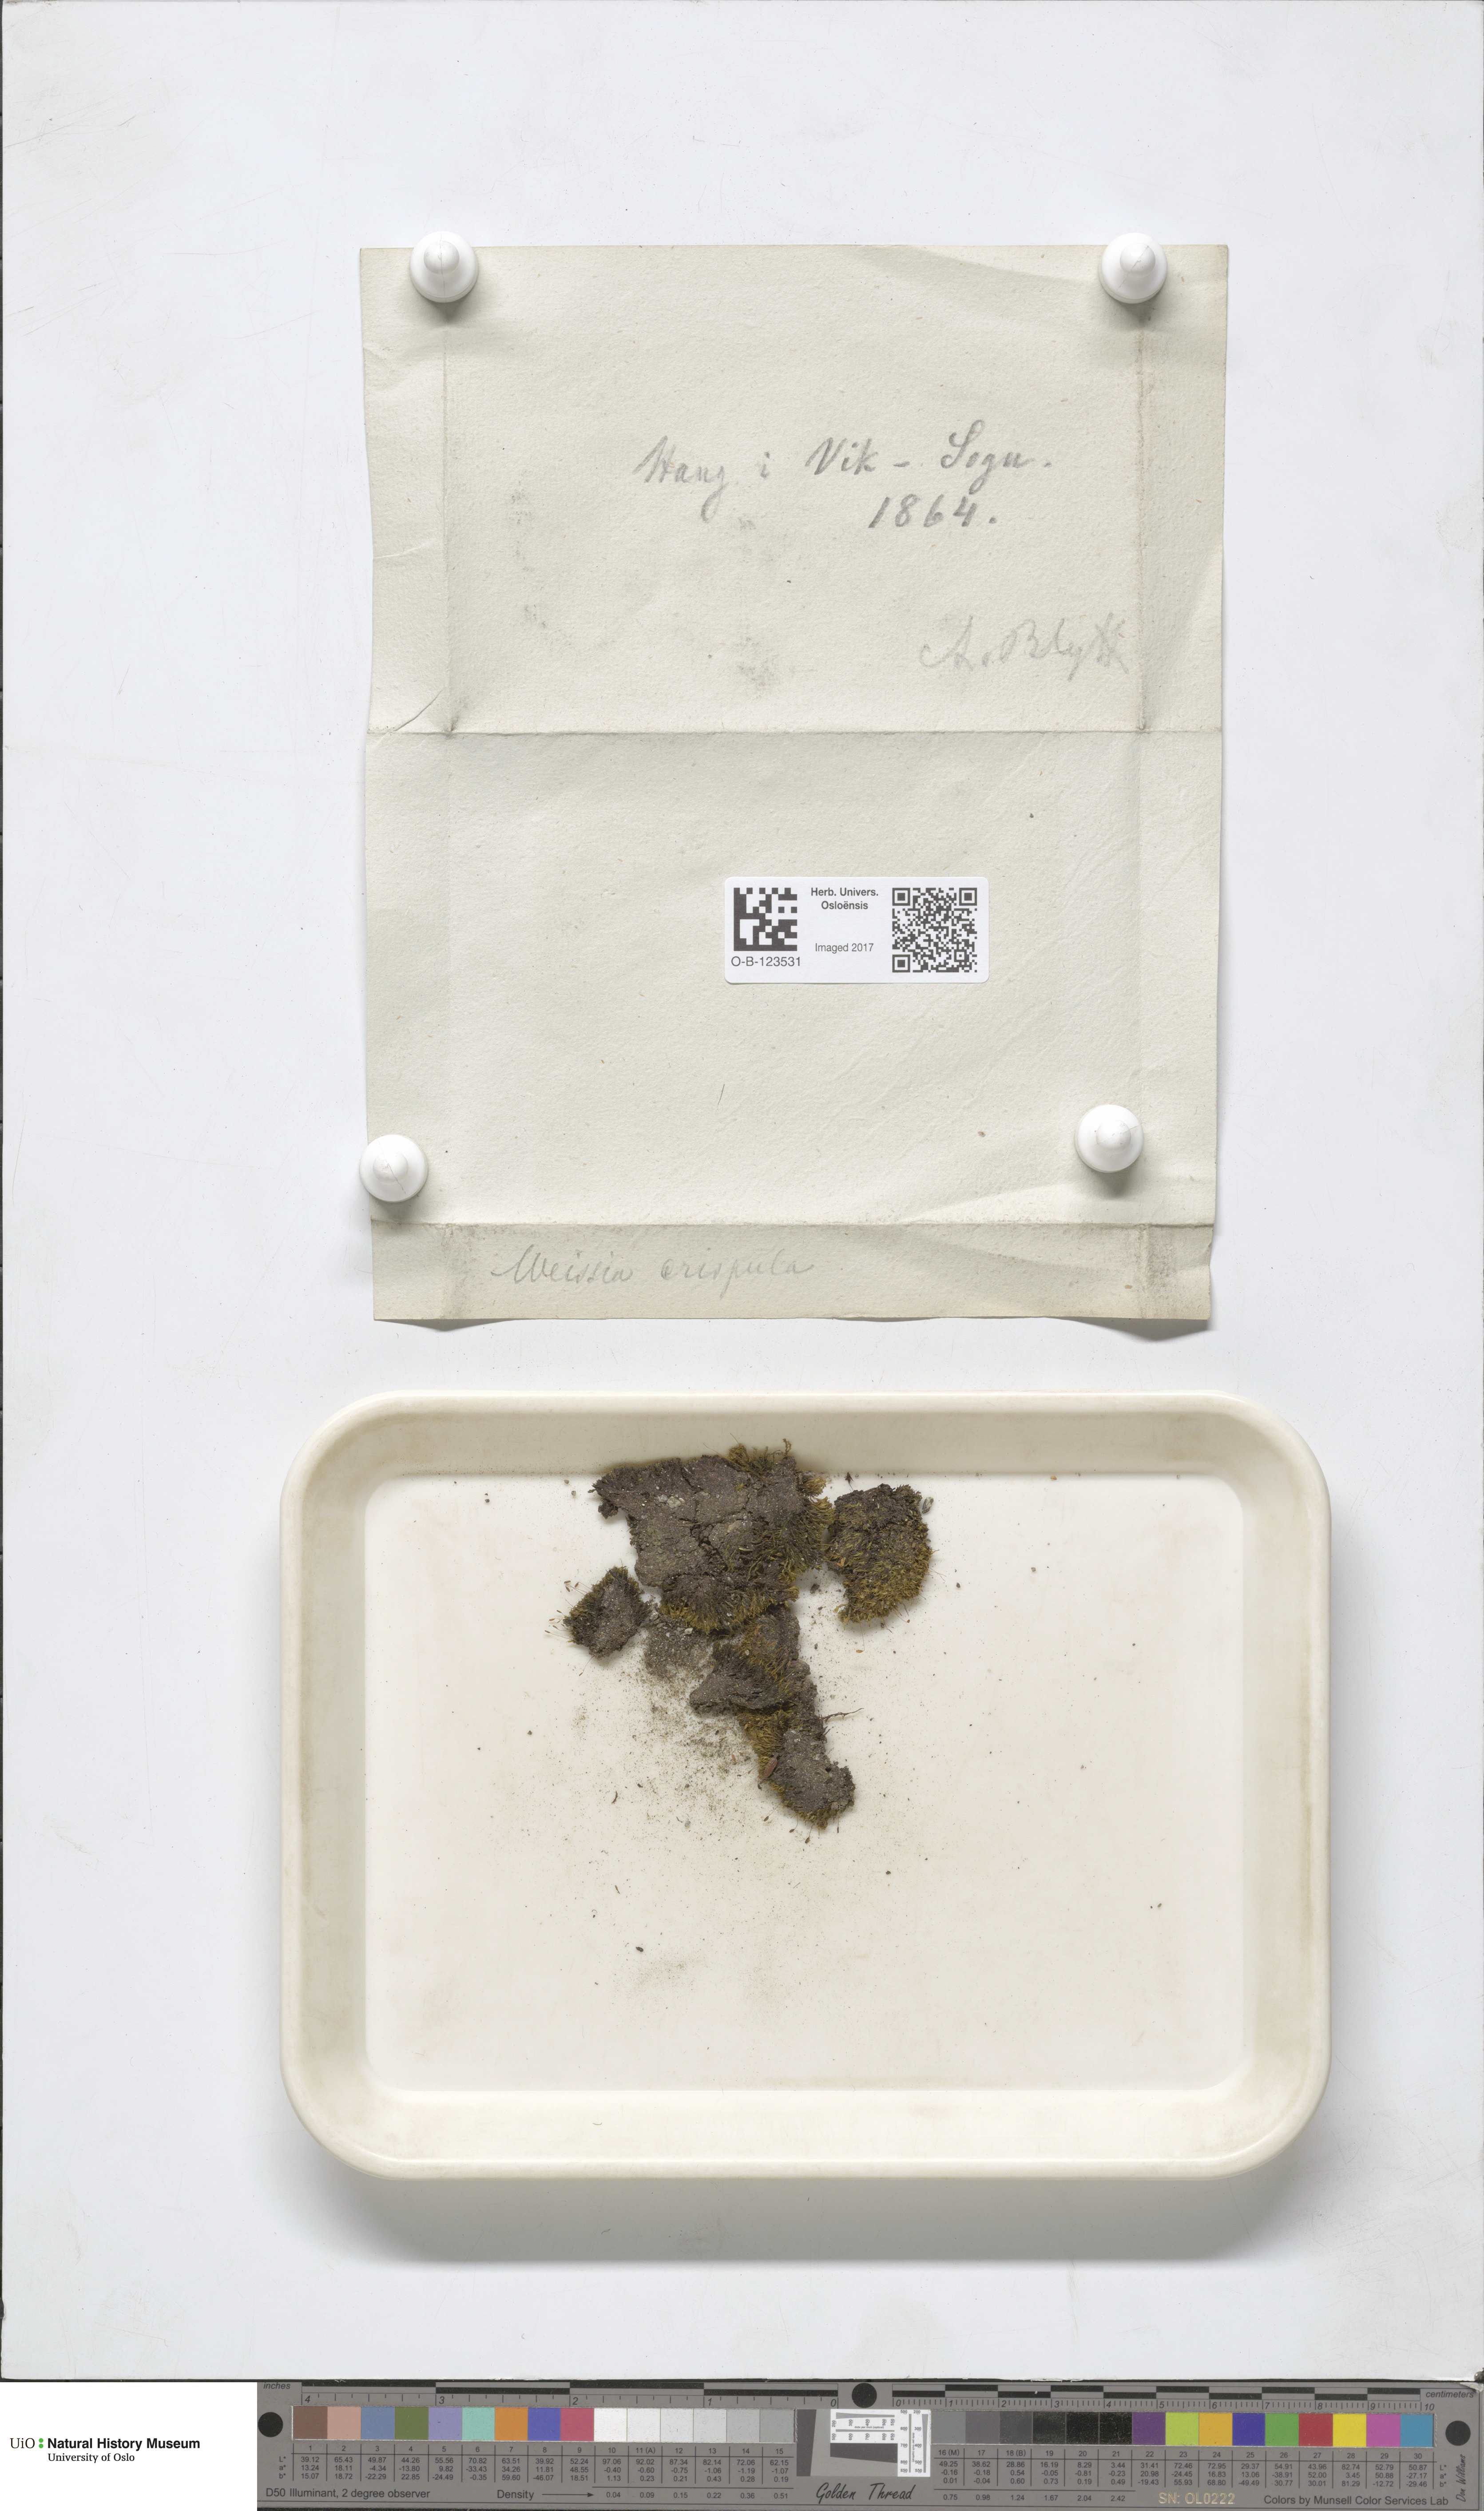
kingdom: Plantae
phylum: Bryophyta
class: Bryopsida
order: Scouleriales
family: Hymenolomataceae
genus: Hymenoloma
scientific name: Hymenoloma crispulum
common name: Mountain pincushion
